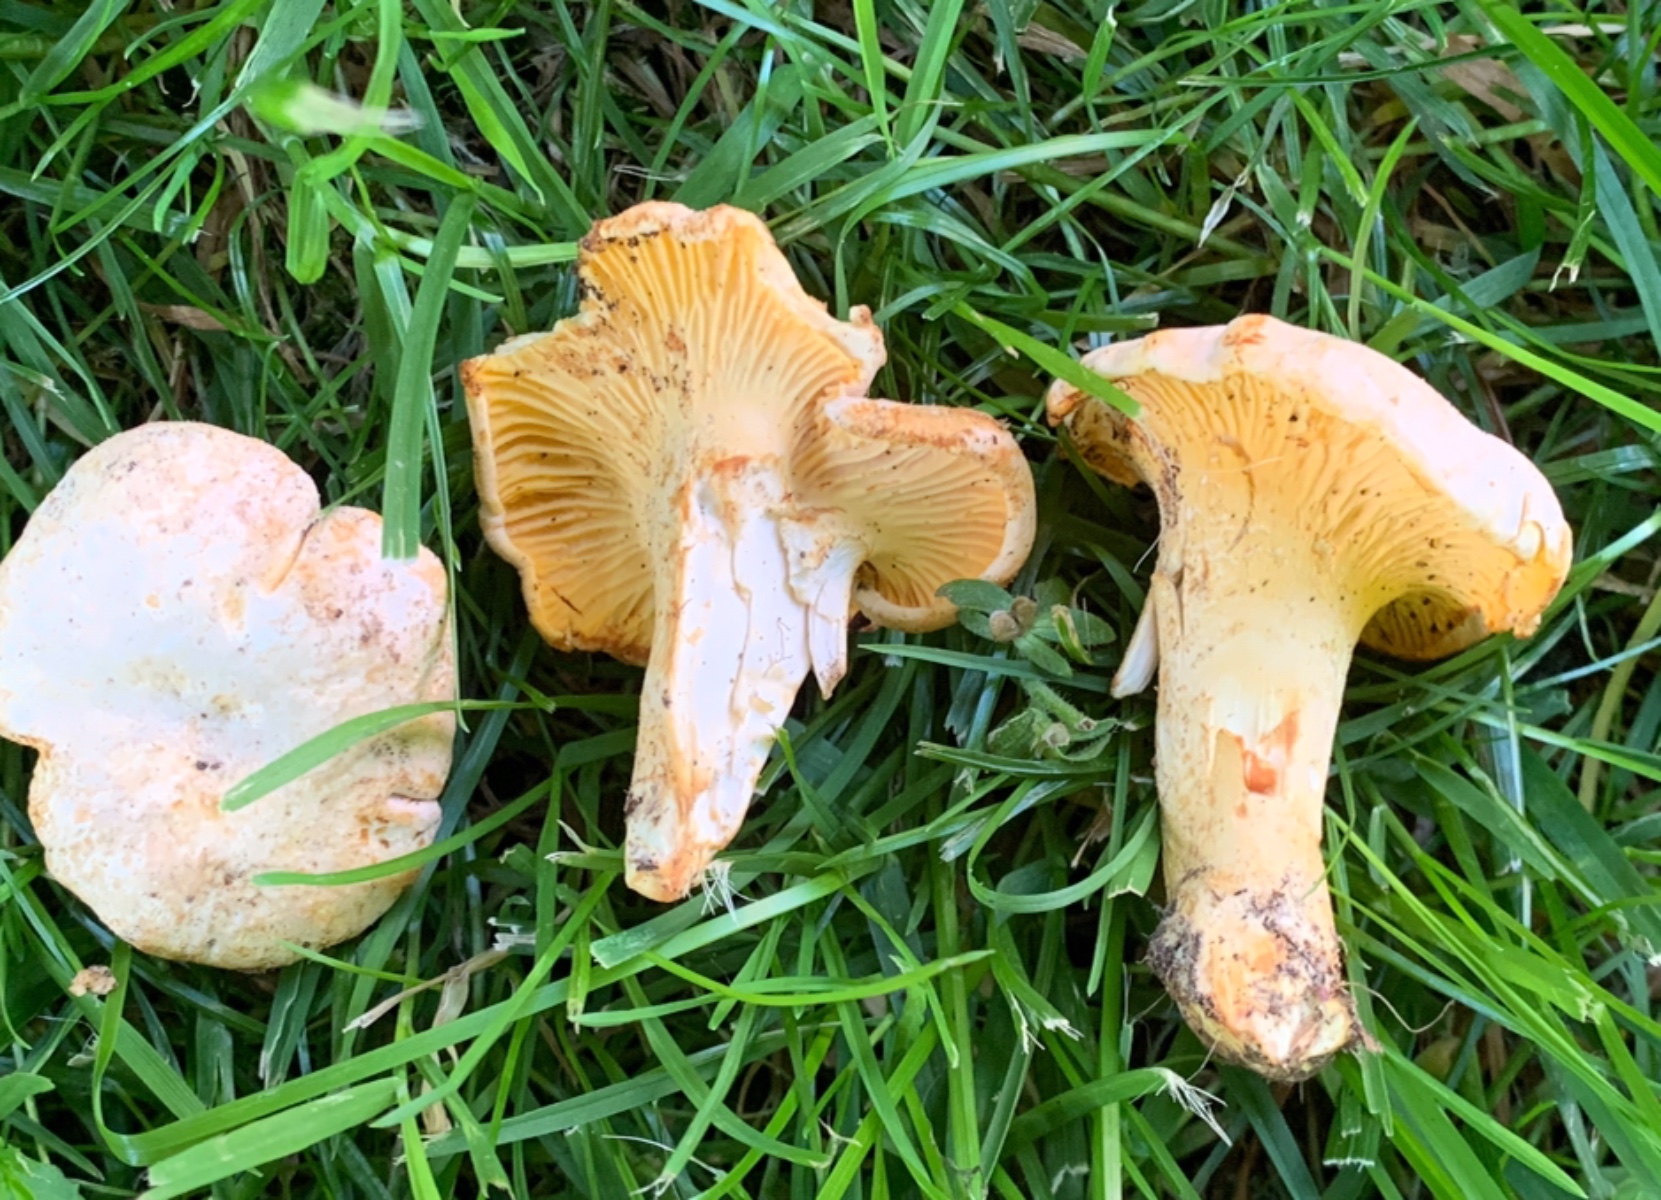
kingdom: Fungi
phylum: Basidiomycota
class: Agaricomycetes
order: Cantharellales
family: Hydnaceae
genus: Cantharellus
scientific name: Cantharellus pallens
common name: bleg kantarel
